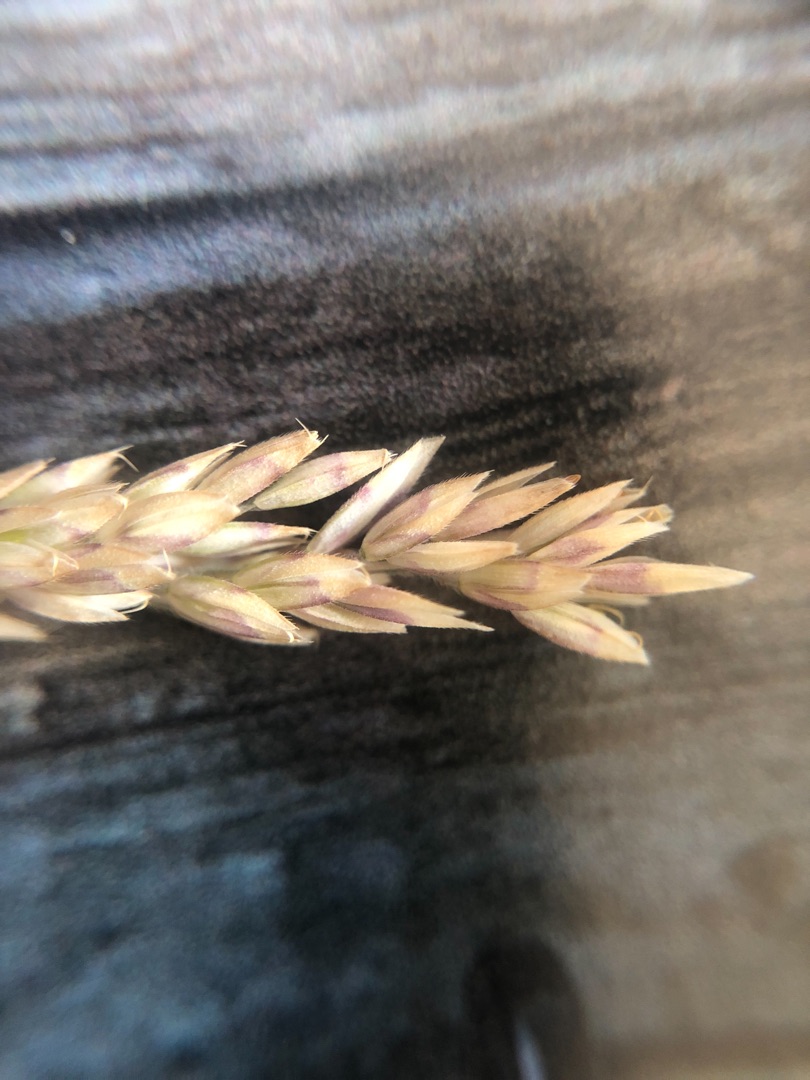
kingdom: Plantae
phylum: Tracheophyta
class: Liliopsida
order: Poales
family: Poaceae
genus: Holcus
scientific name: Holcus lanatus
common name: Fløjlsgræs
